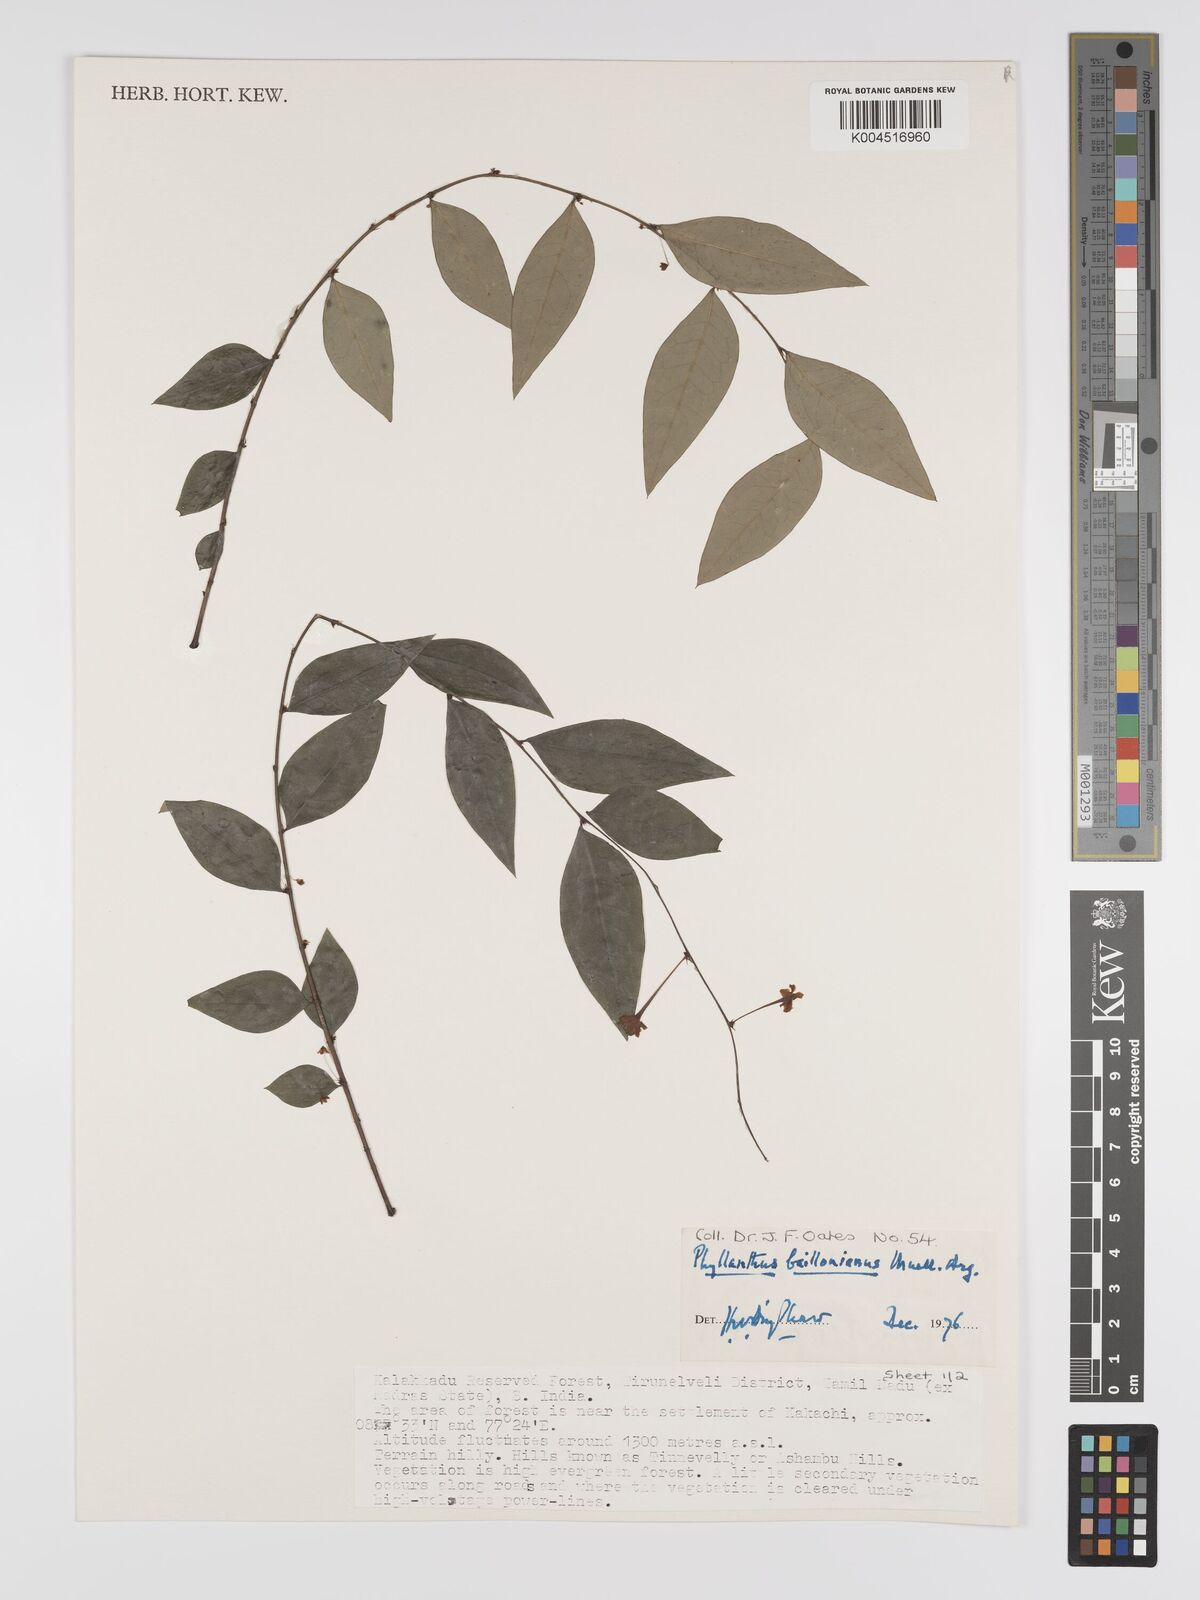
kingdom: Plantae
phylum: Tracheophyta
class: Magnoliopsida
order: Malpighiales
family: Phyllanthaceae
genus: Phyllanthus
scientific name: Phyllanthus baillonianus
